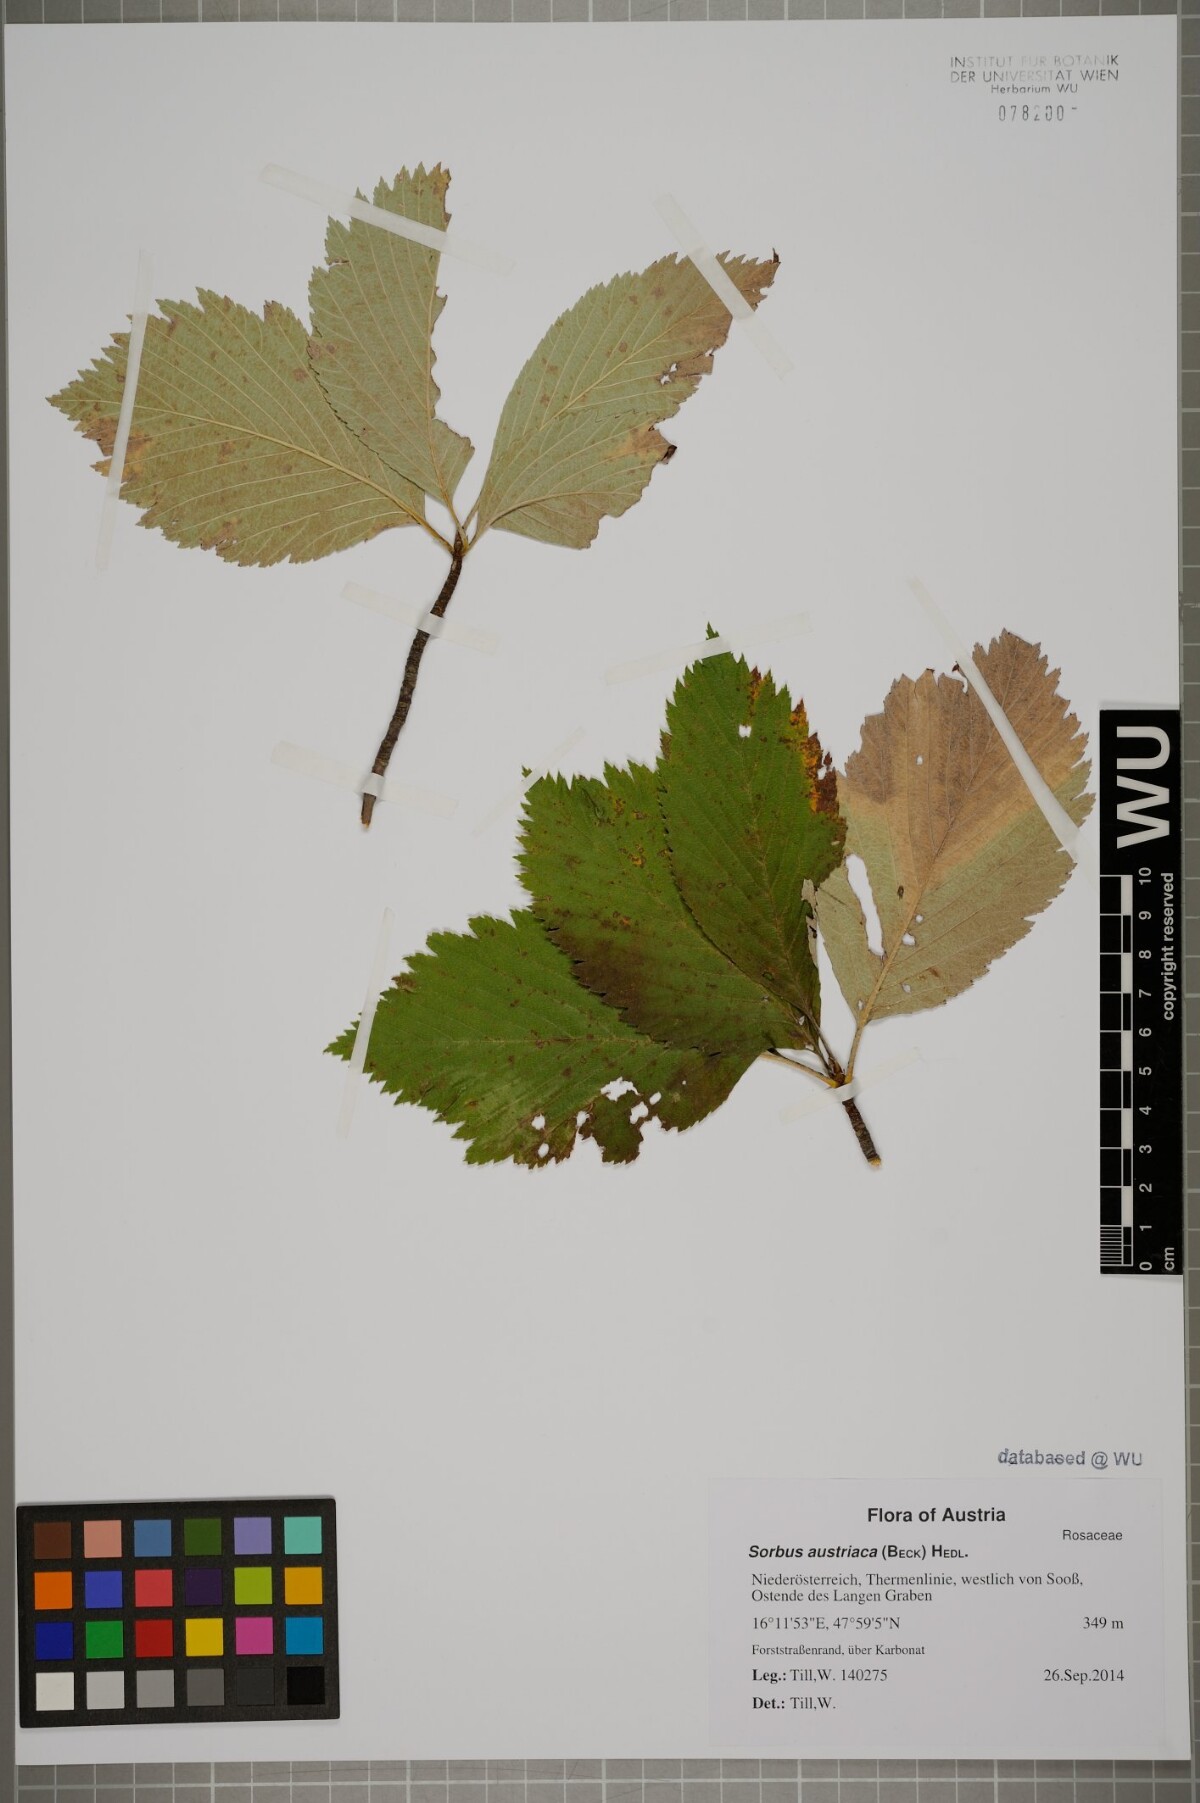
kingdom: Plantae
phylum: Tracheophyta
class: Magnoliopsida
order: Rosales
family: Rosaceae
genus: Aria
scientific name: Aria edulis
